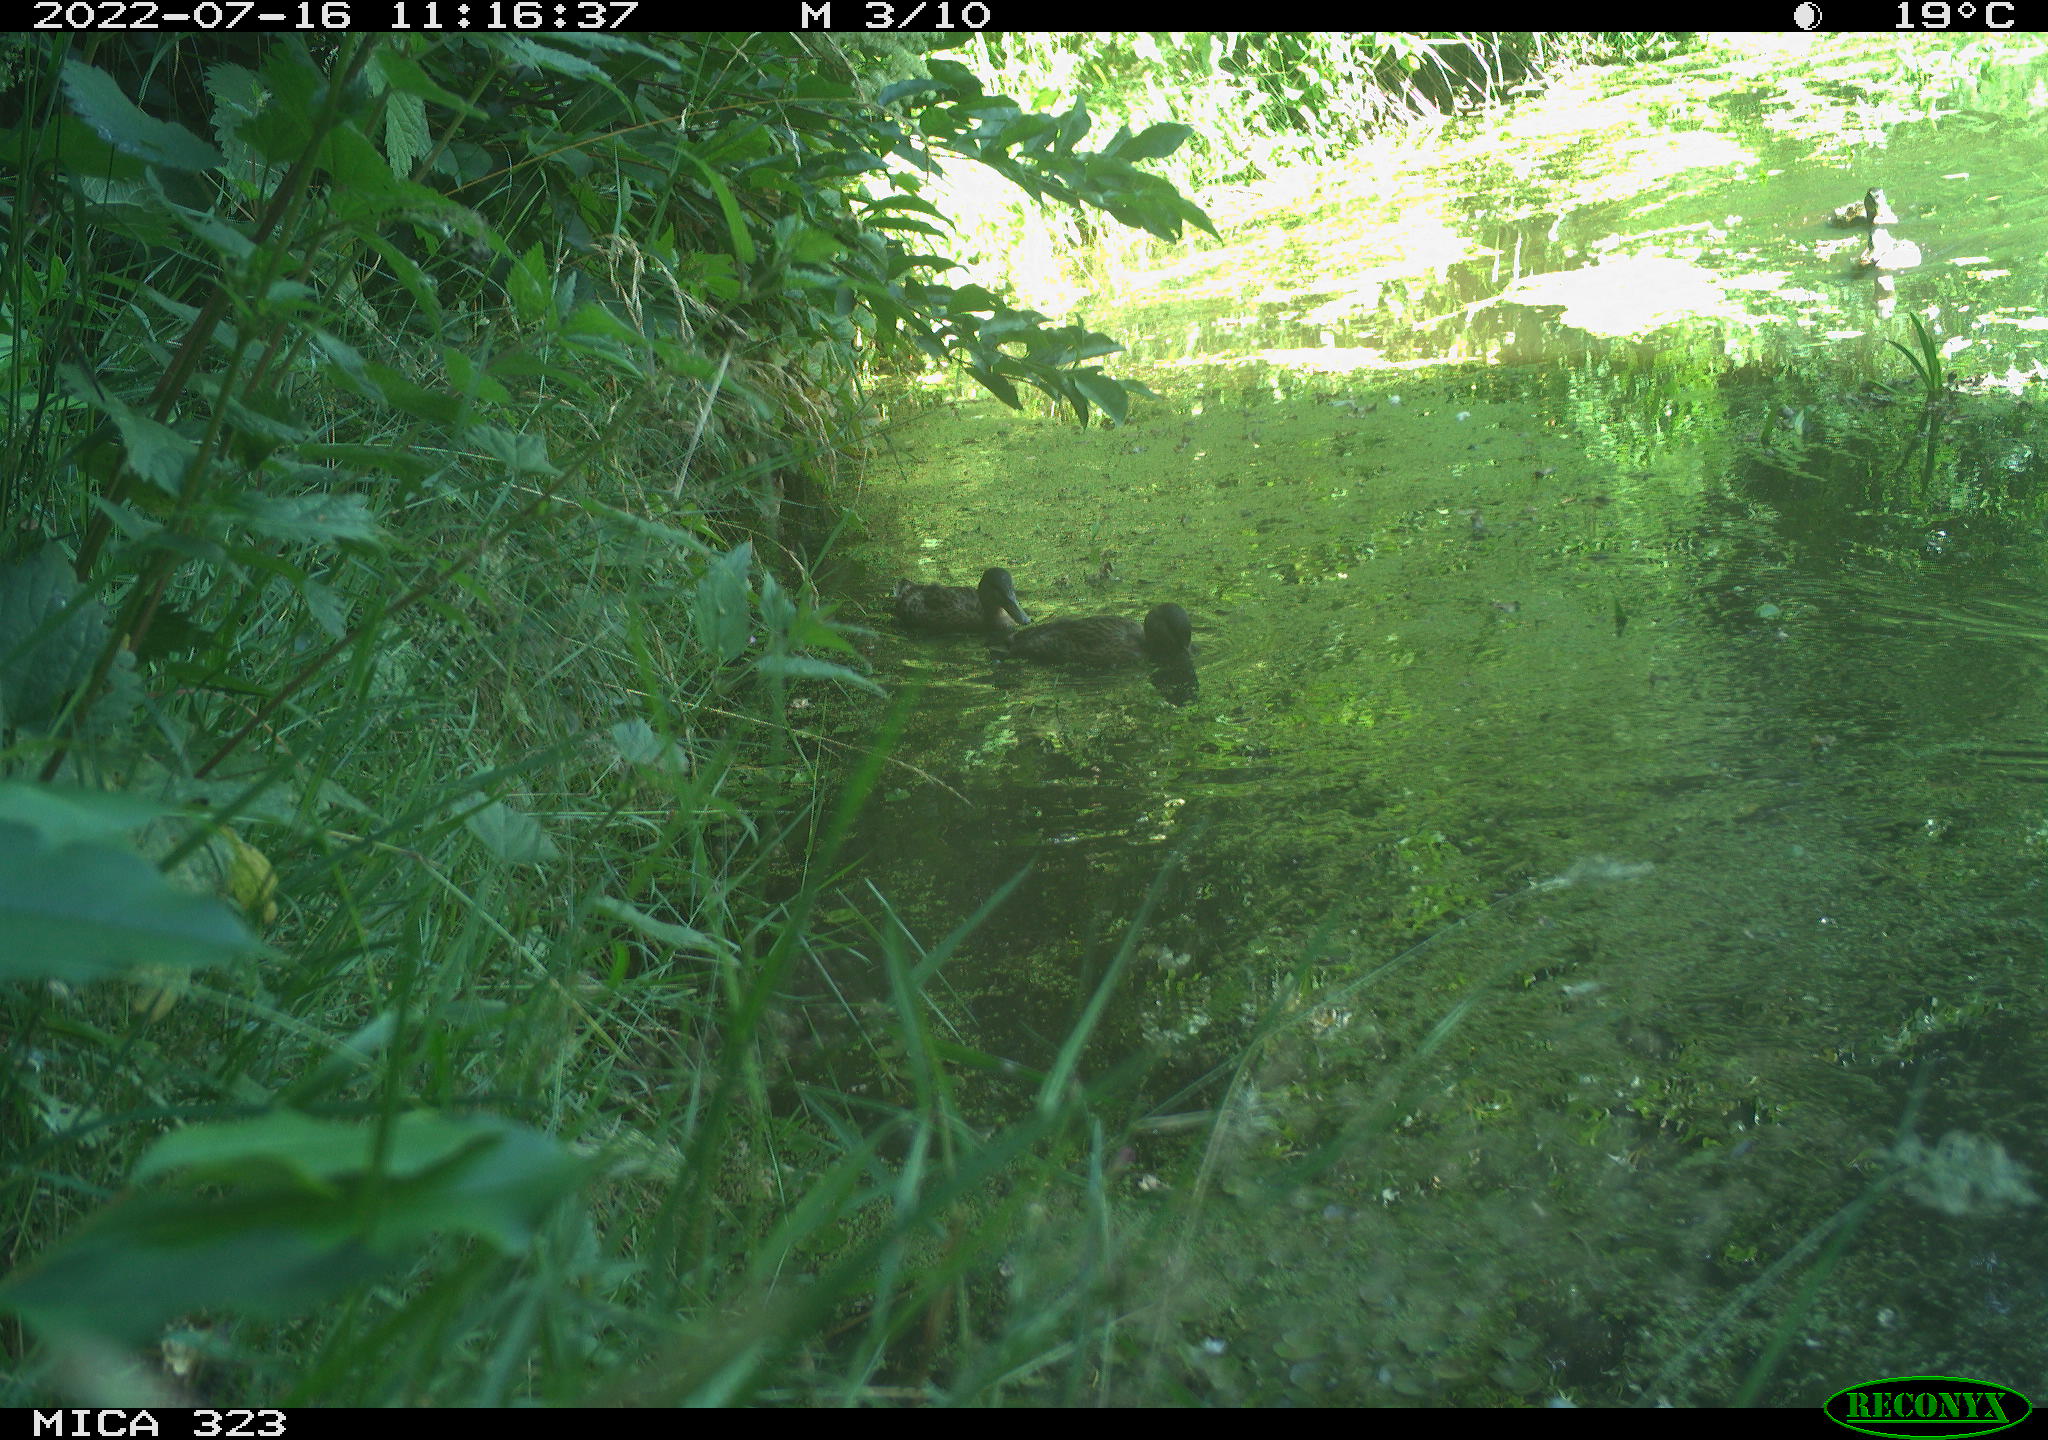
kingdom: Animalia
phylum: Chordata
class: Aves
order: Anseriformes
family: Anatidae
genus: Anas
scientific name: Anas platyrhynchos
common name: Mallard
